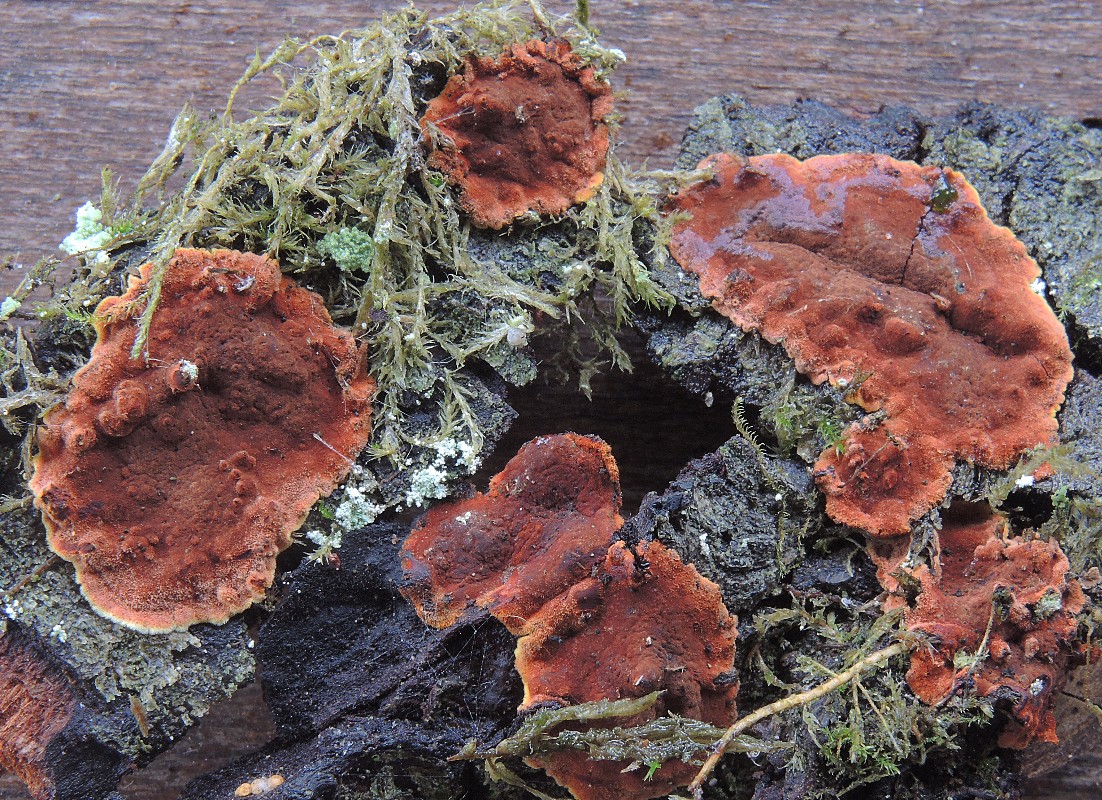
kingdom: Fungi
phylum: Ascomycota
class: Sordariomycetes
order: Xylariales
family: Hypoxylaceae
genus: Hypoxylon
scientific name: Hypoxylon subticinense
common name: filtet kulbær
